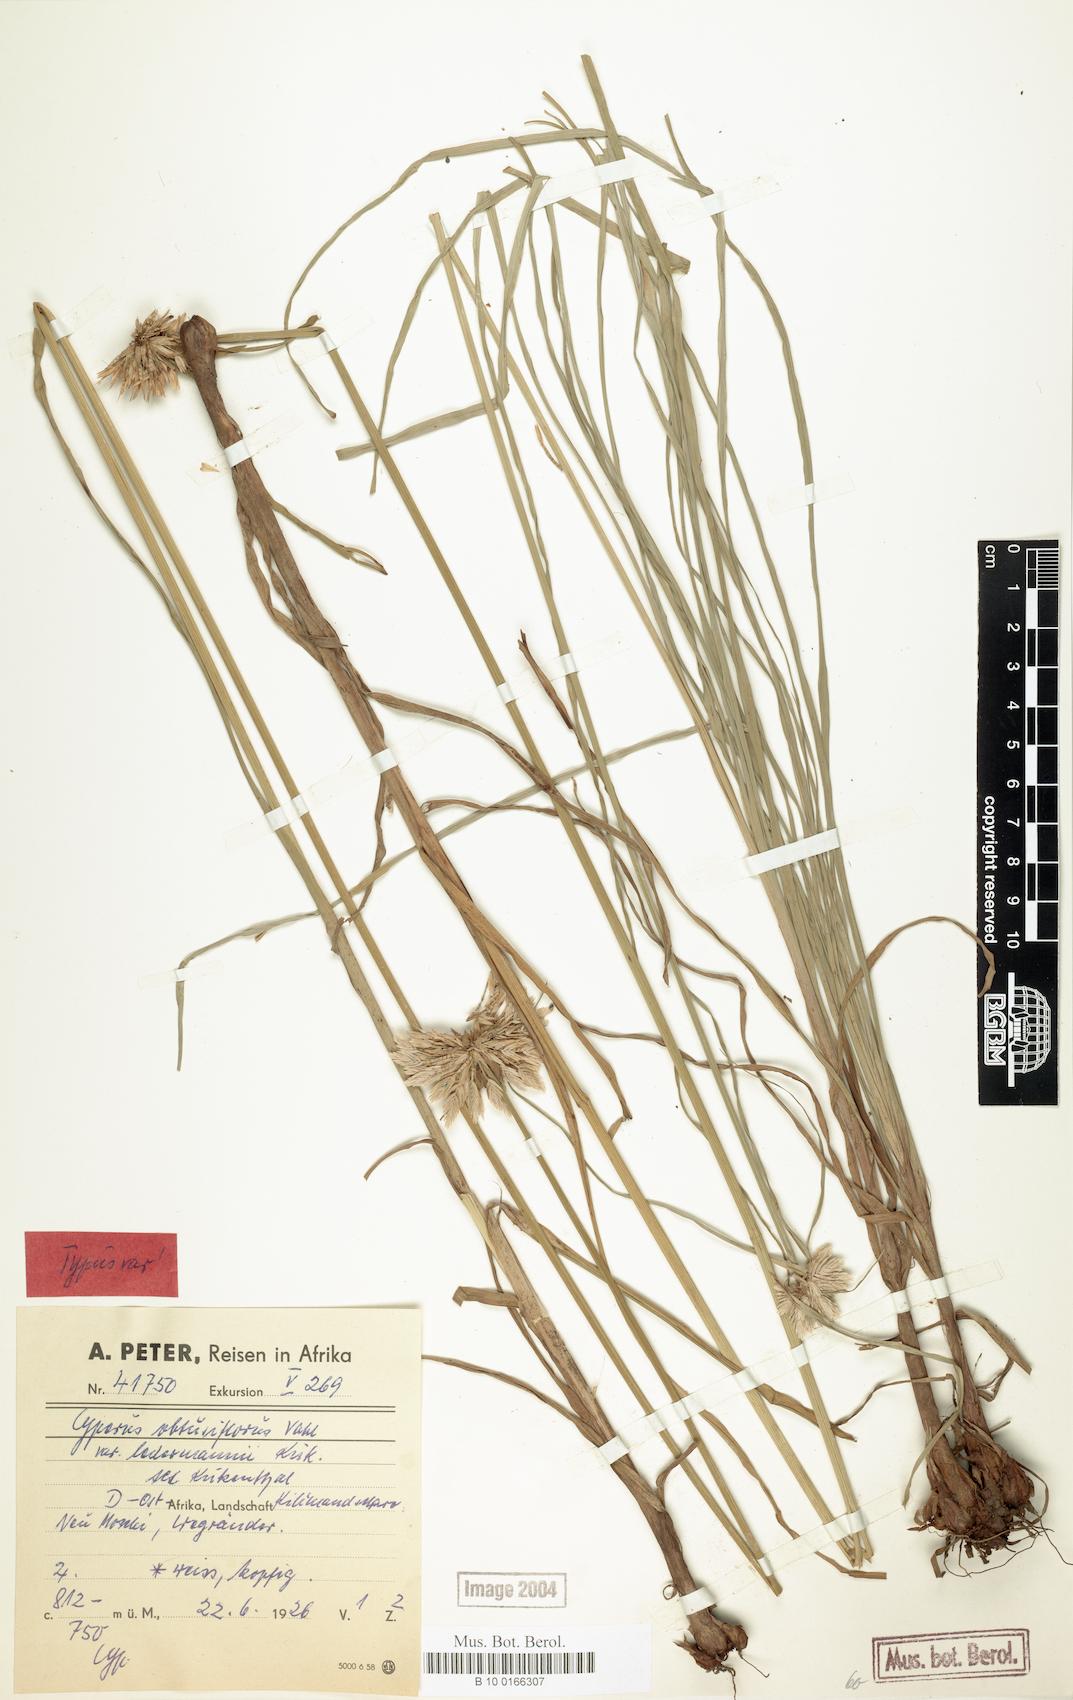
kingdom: Plantae
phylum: Tracheophyta
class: Liliopsida
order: Poales
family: Cyperaceae
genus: Cyperus
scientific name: Cyperus niveus
